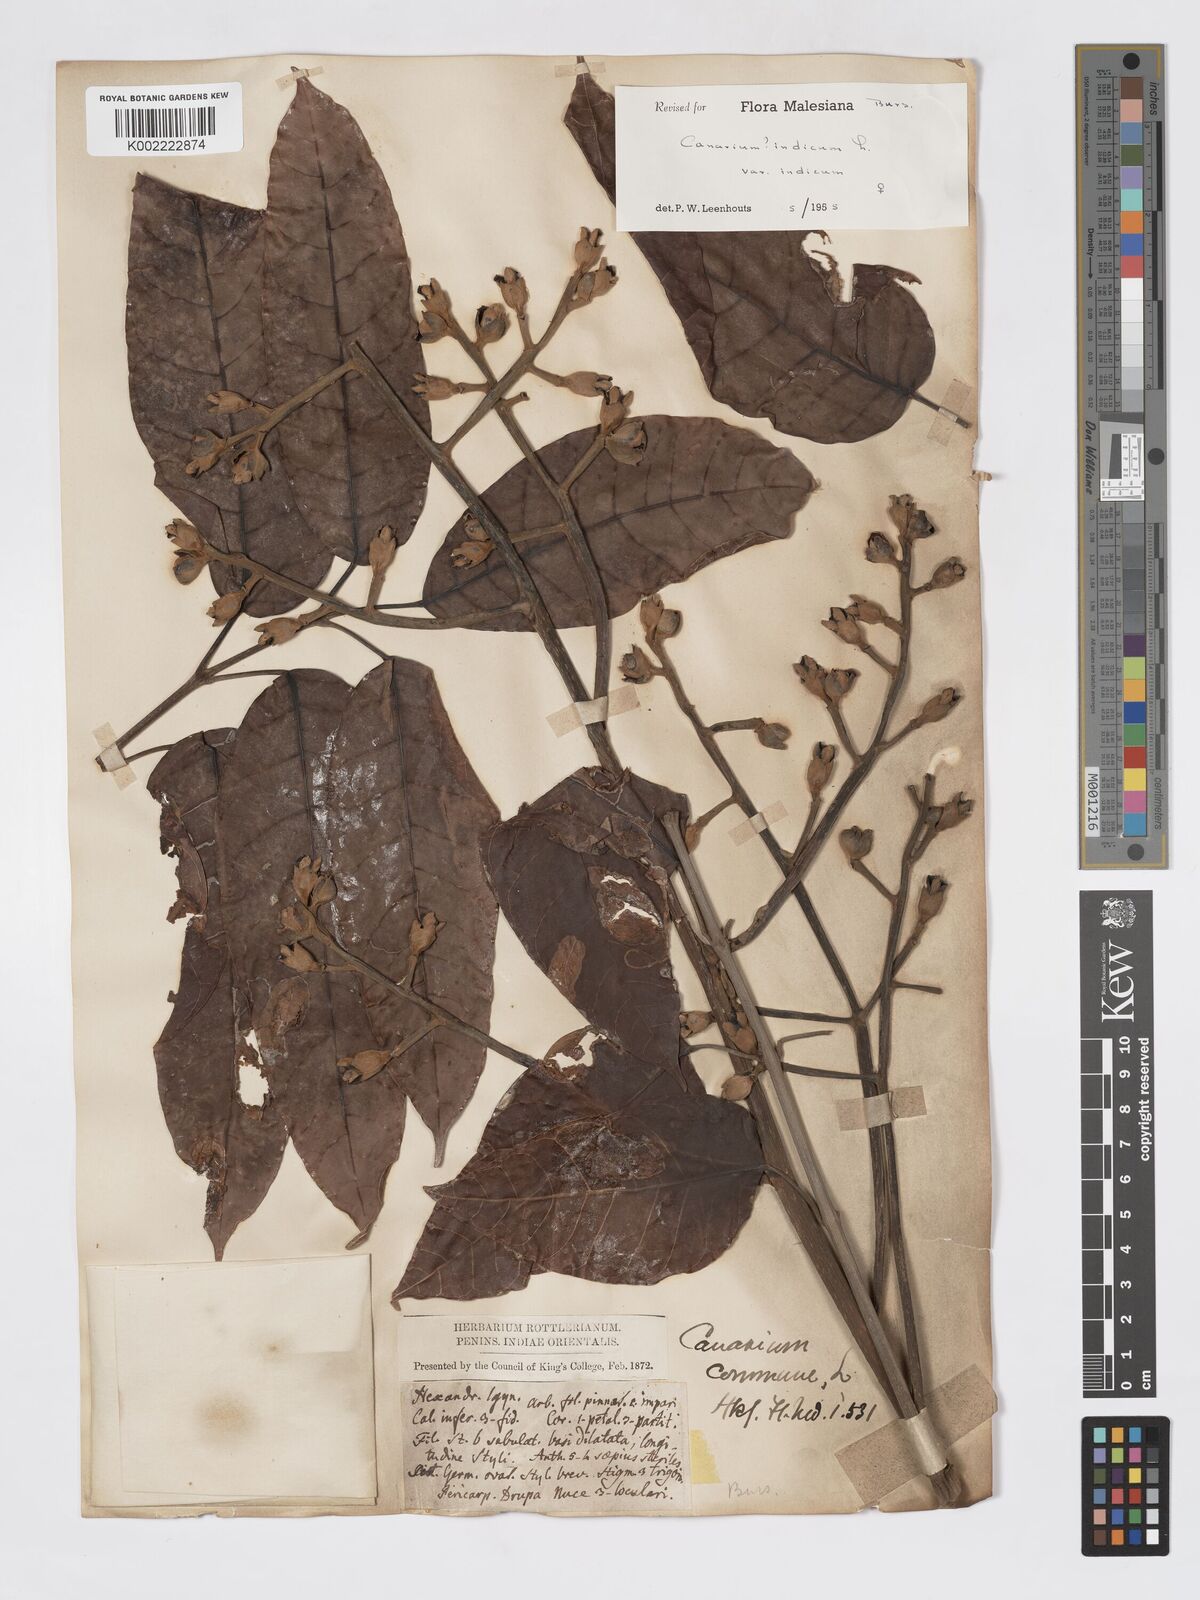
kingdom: Plantae
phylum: Tracheophyta
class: Magnoliopsida
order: Sapindales
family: Burseraceae
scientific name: Burseraceae
